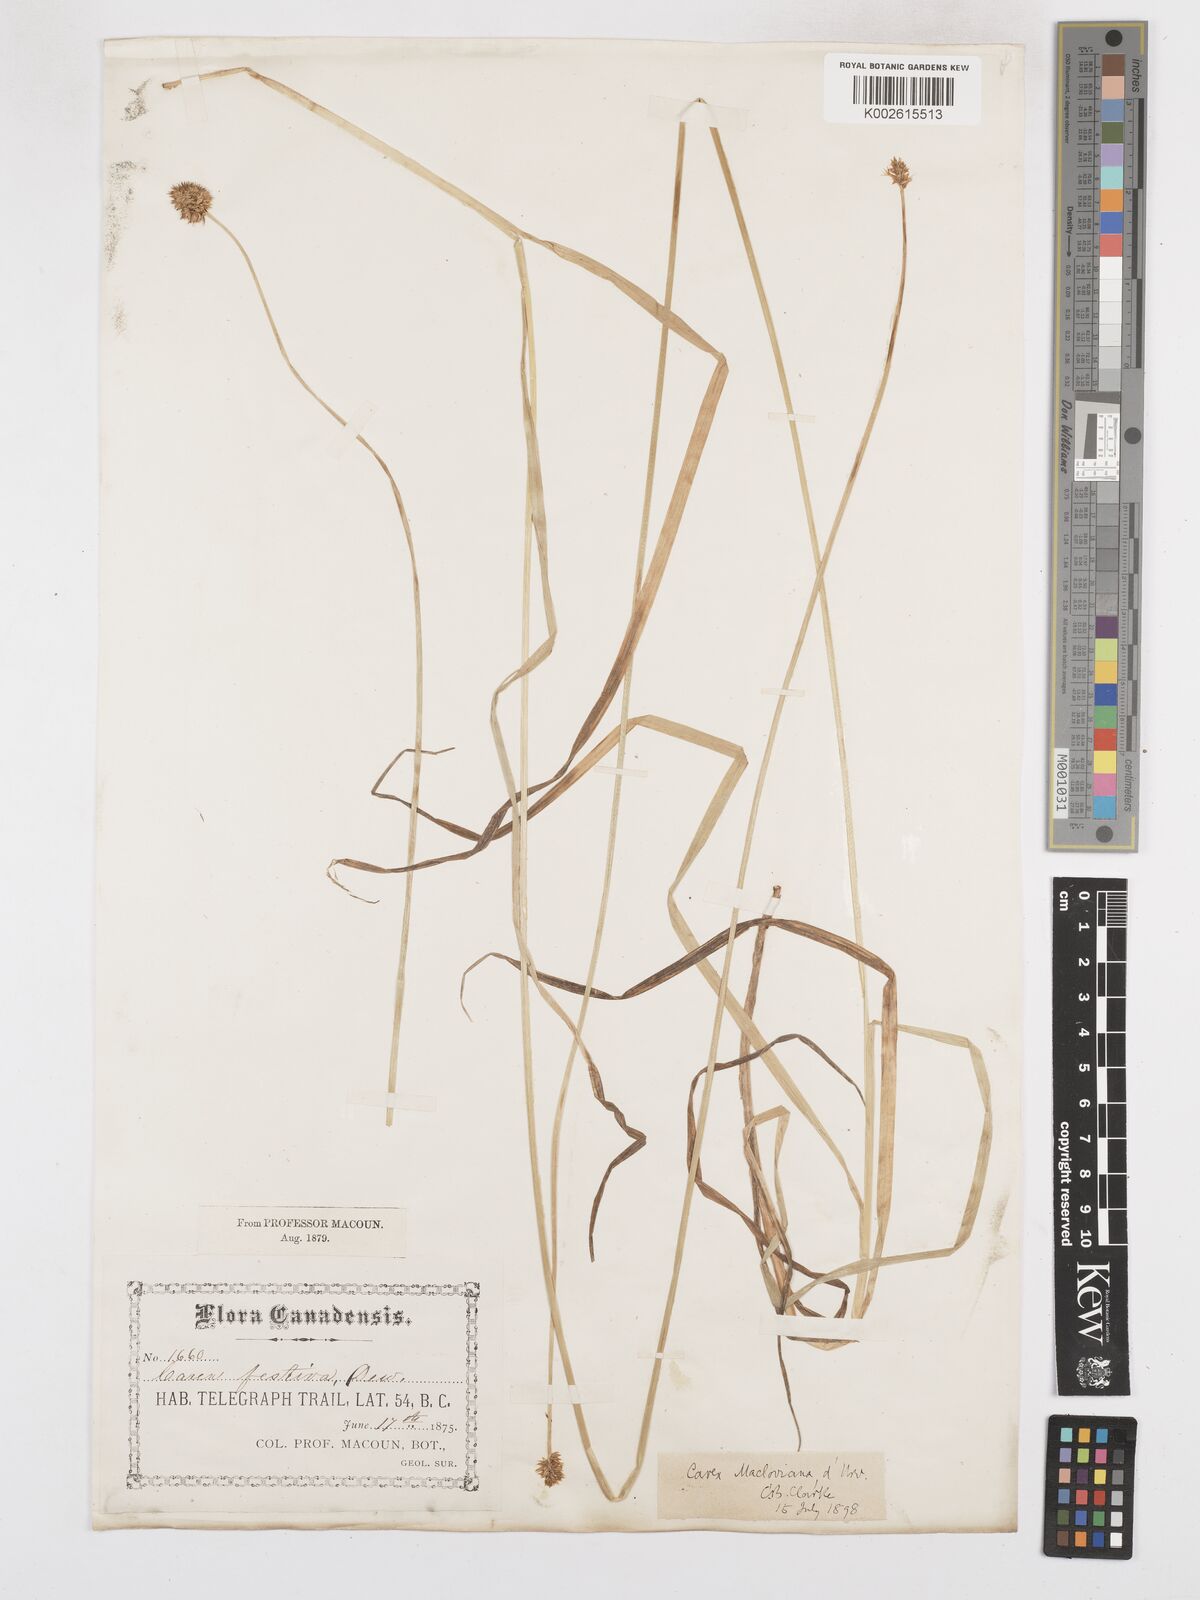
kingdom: Plantae
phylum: Tracheophyta
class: Liliopsida
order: Poales
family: Cyperaceae
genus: Carex
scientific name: Carex macloviana
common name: Falkland island sedge
